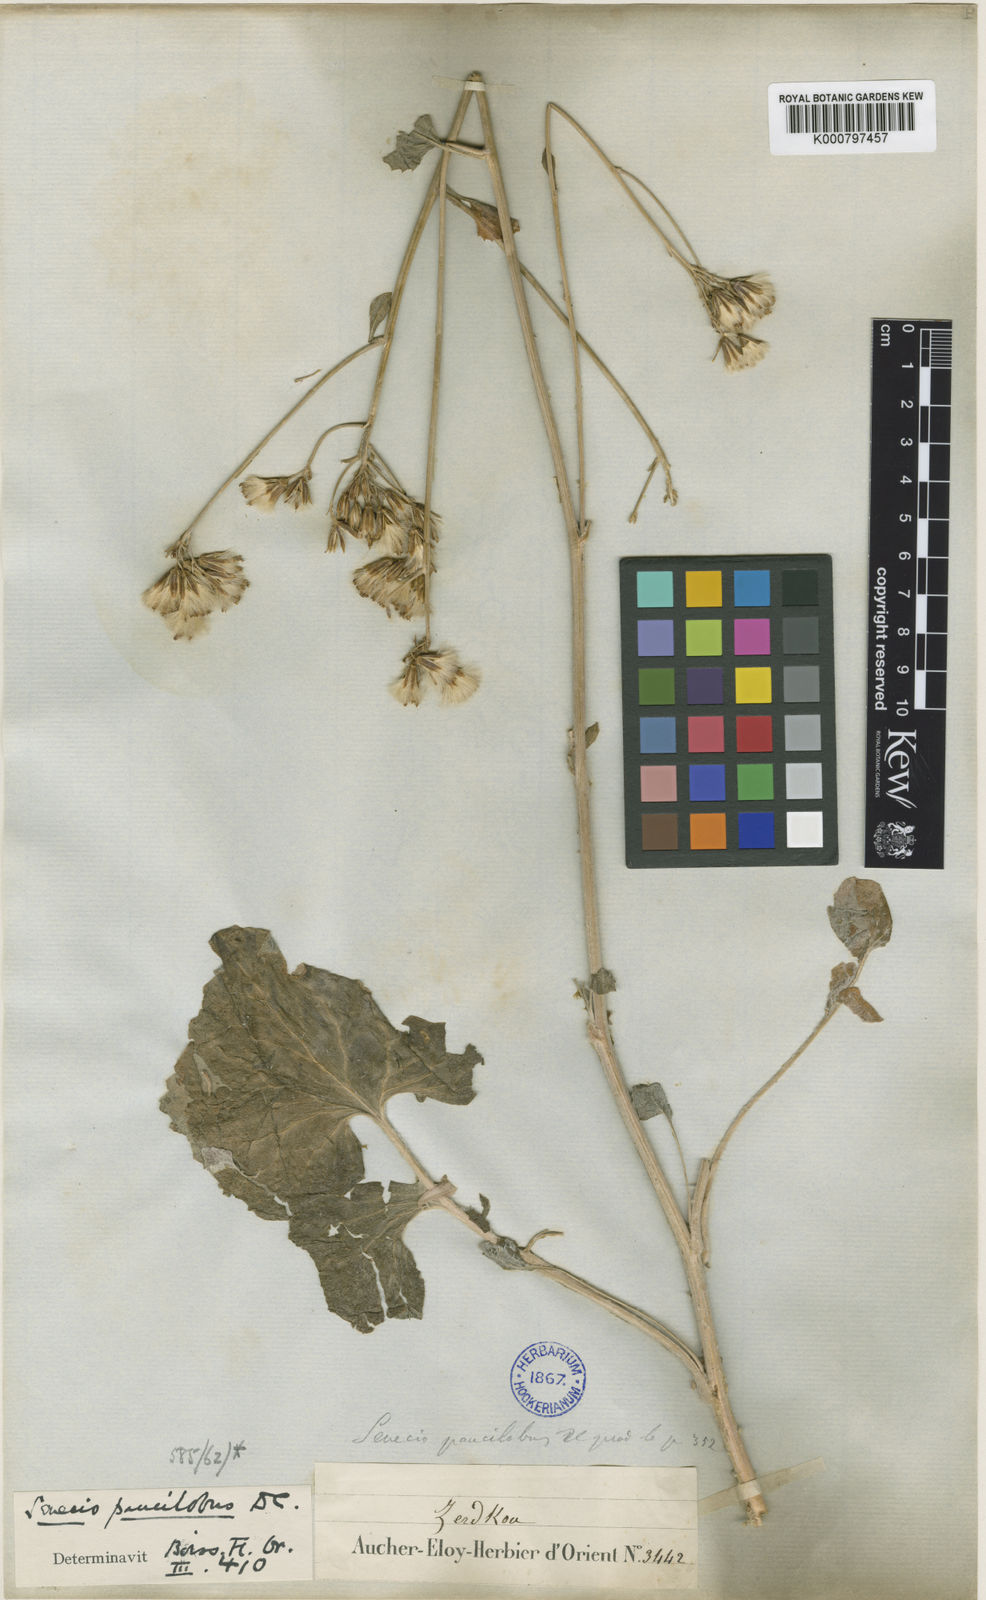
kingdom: Plantae
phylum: Tracheophyta
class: Magnoliopsida
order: Asterales
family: Asteraceae
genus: Iranecio
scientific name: Iranecio paucilobus
